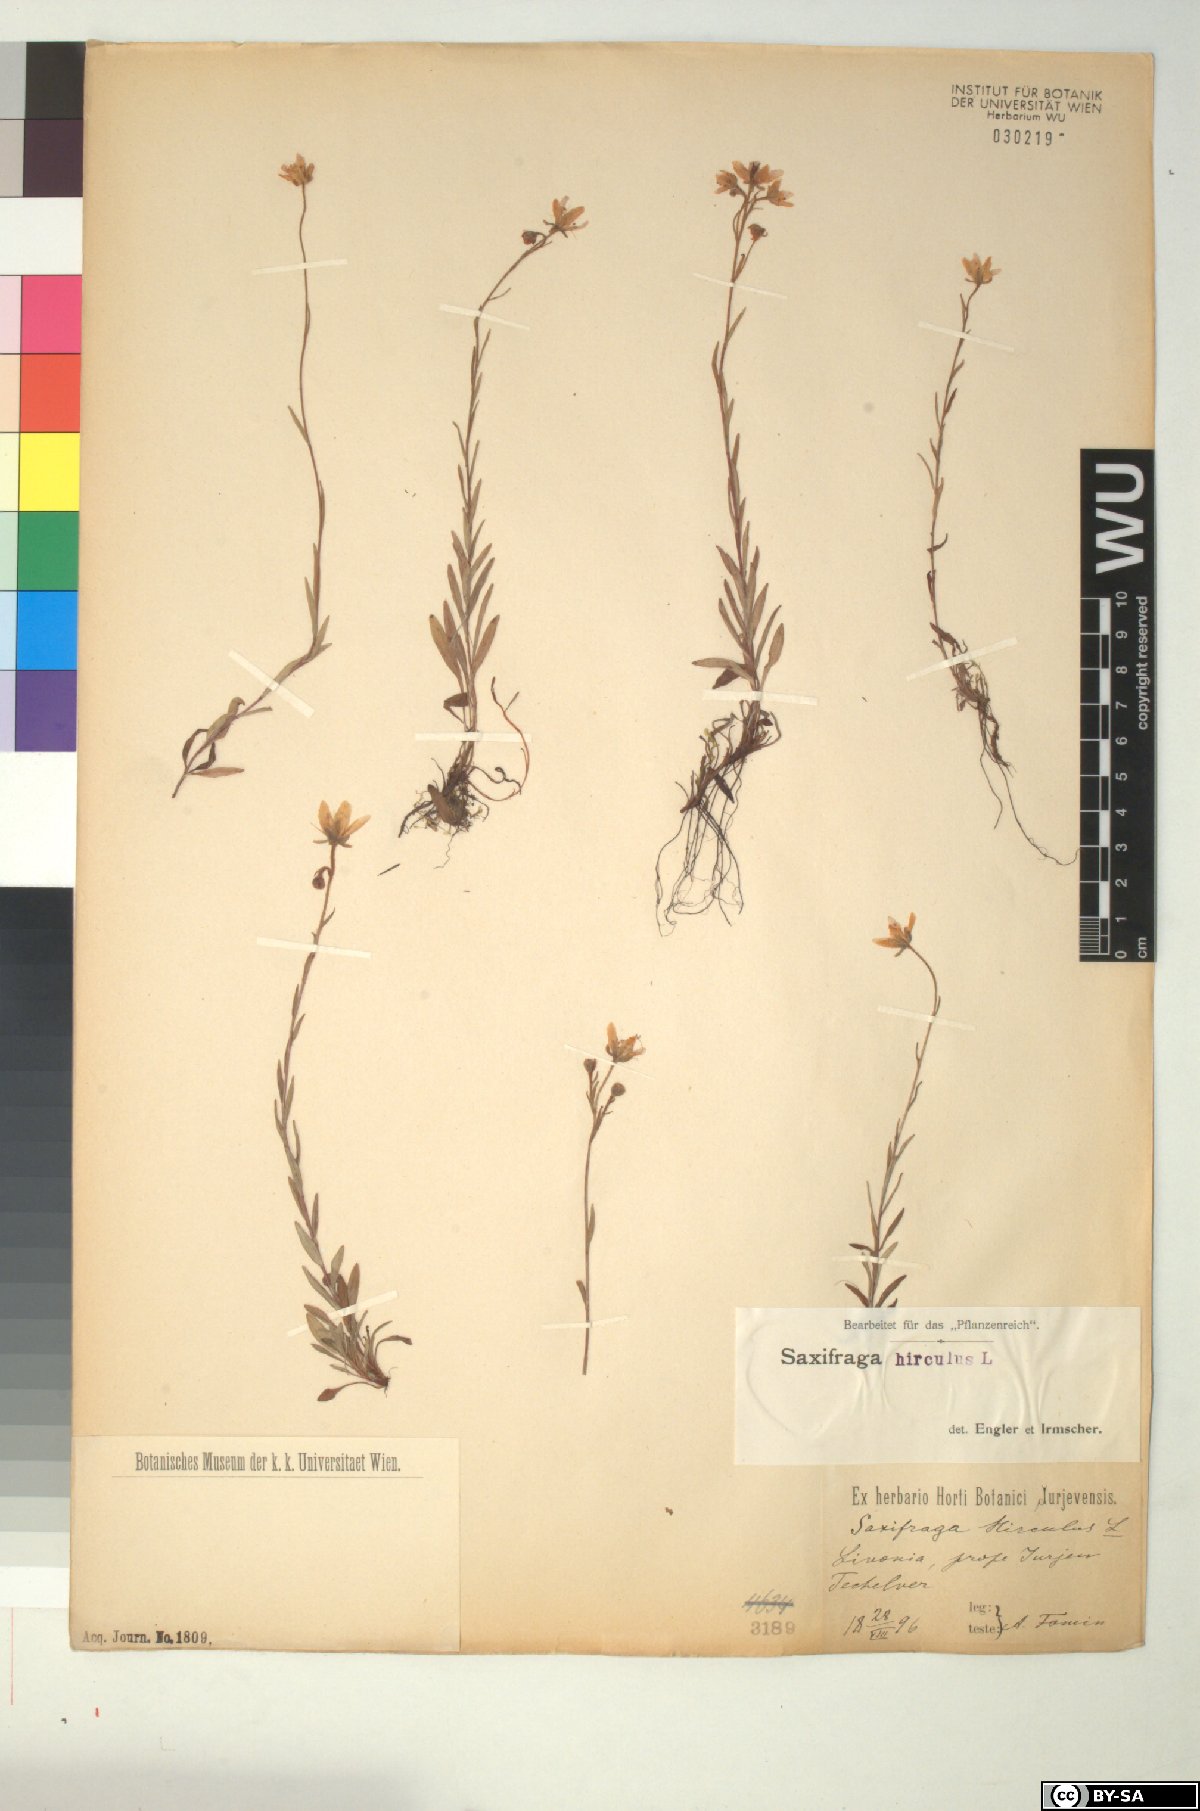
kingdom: Plantae
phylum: Tracheophyta
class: Magnoliopsida
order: Saxifragales
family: Saxifragaceae
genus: Saxifraga
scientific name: Saxifraga hirculus
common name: Yellow marsh saxifrage
